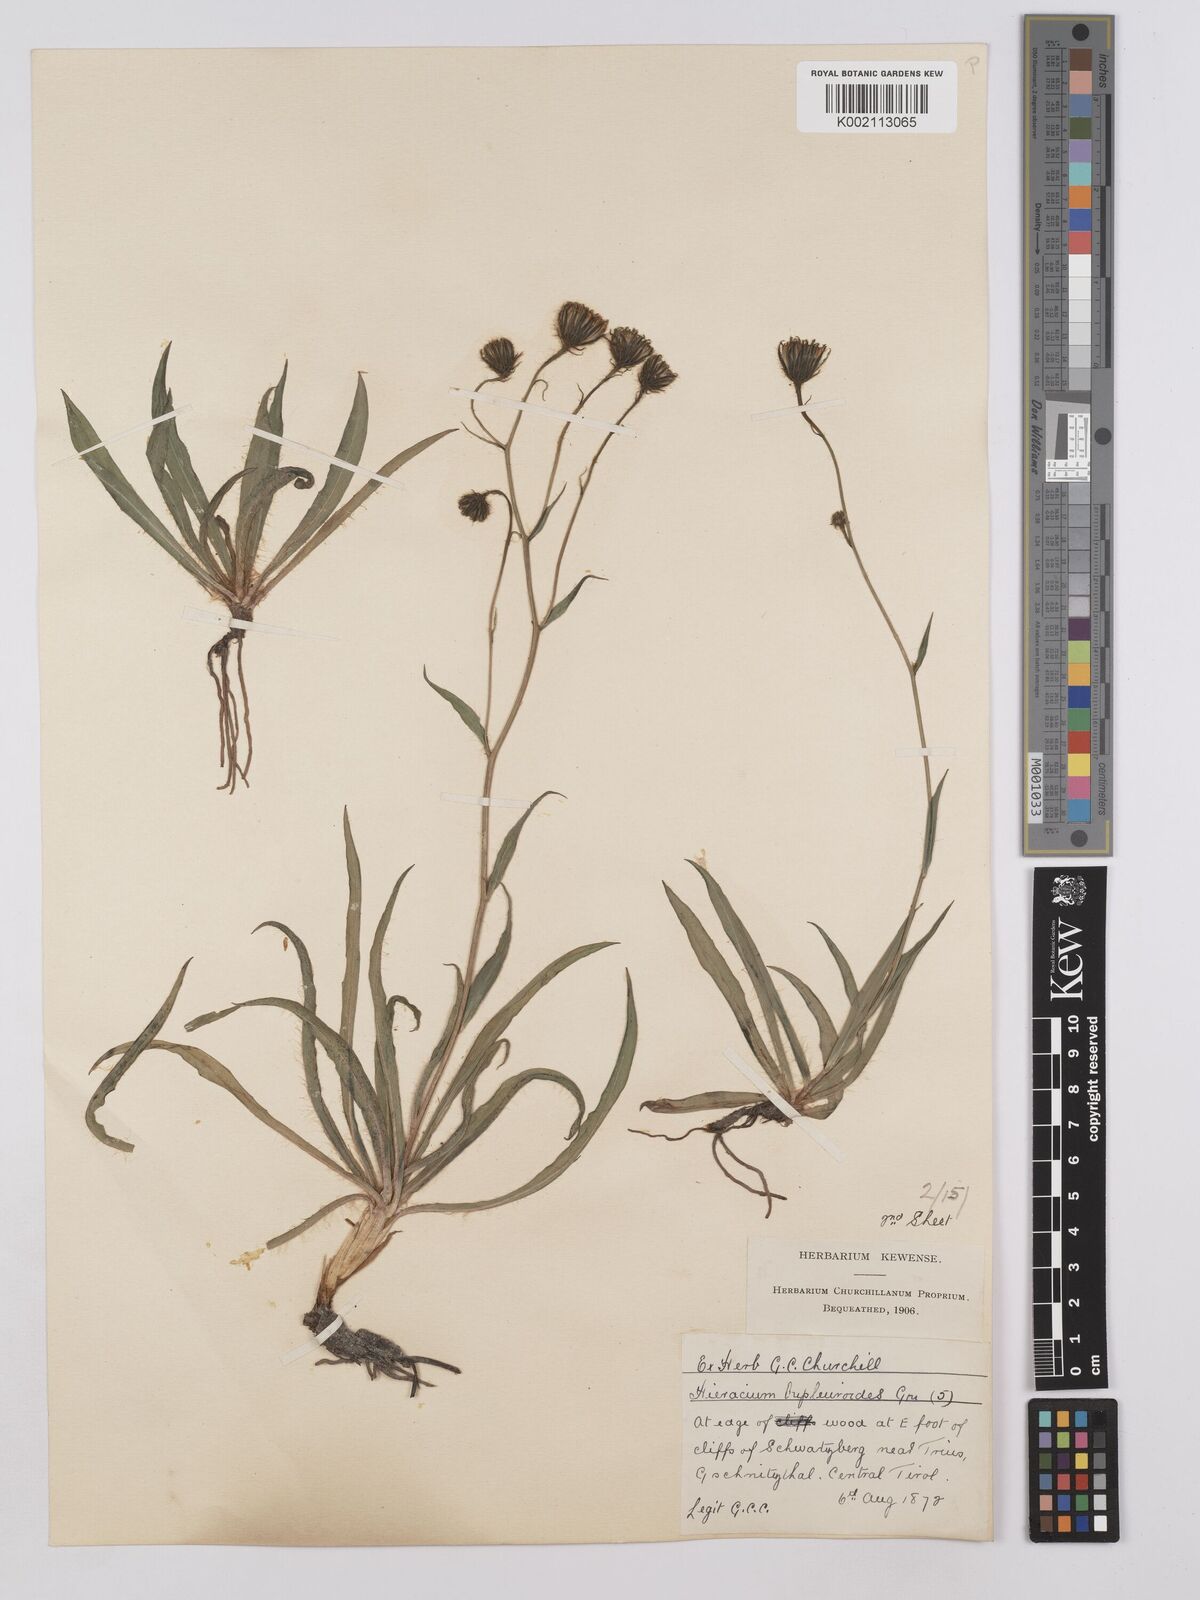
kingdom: Plantae
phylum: Tracheophyta
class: Magnoliopsida
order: Asterales
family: Asteraceae
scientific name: Asteraceae
